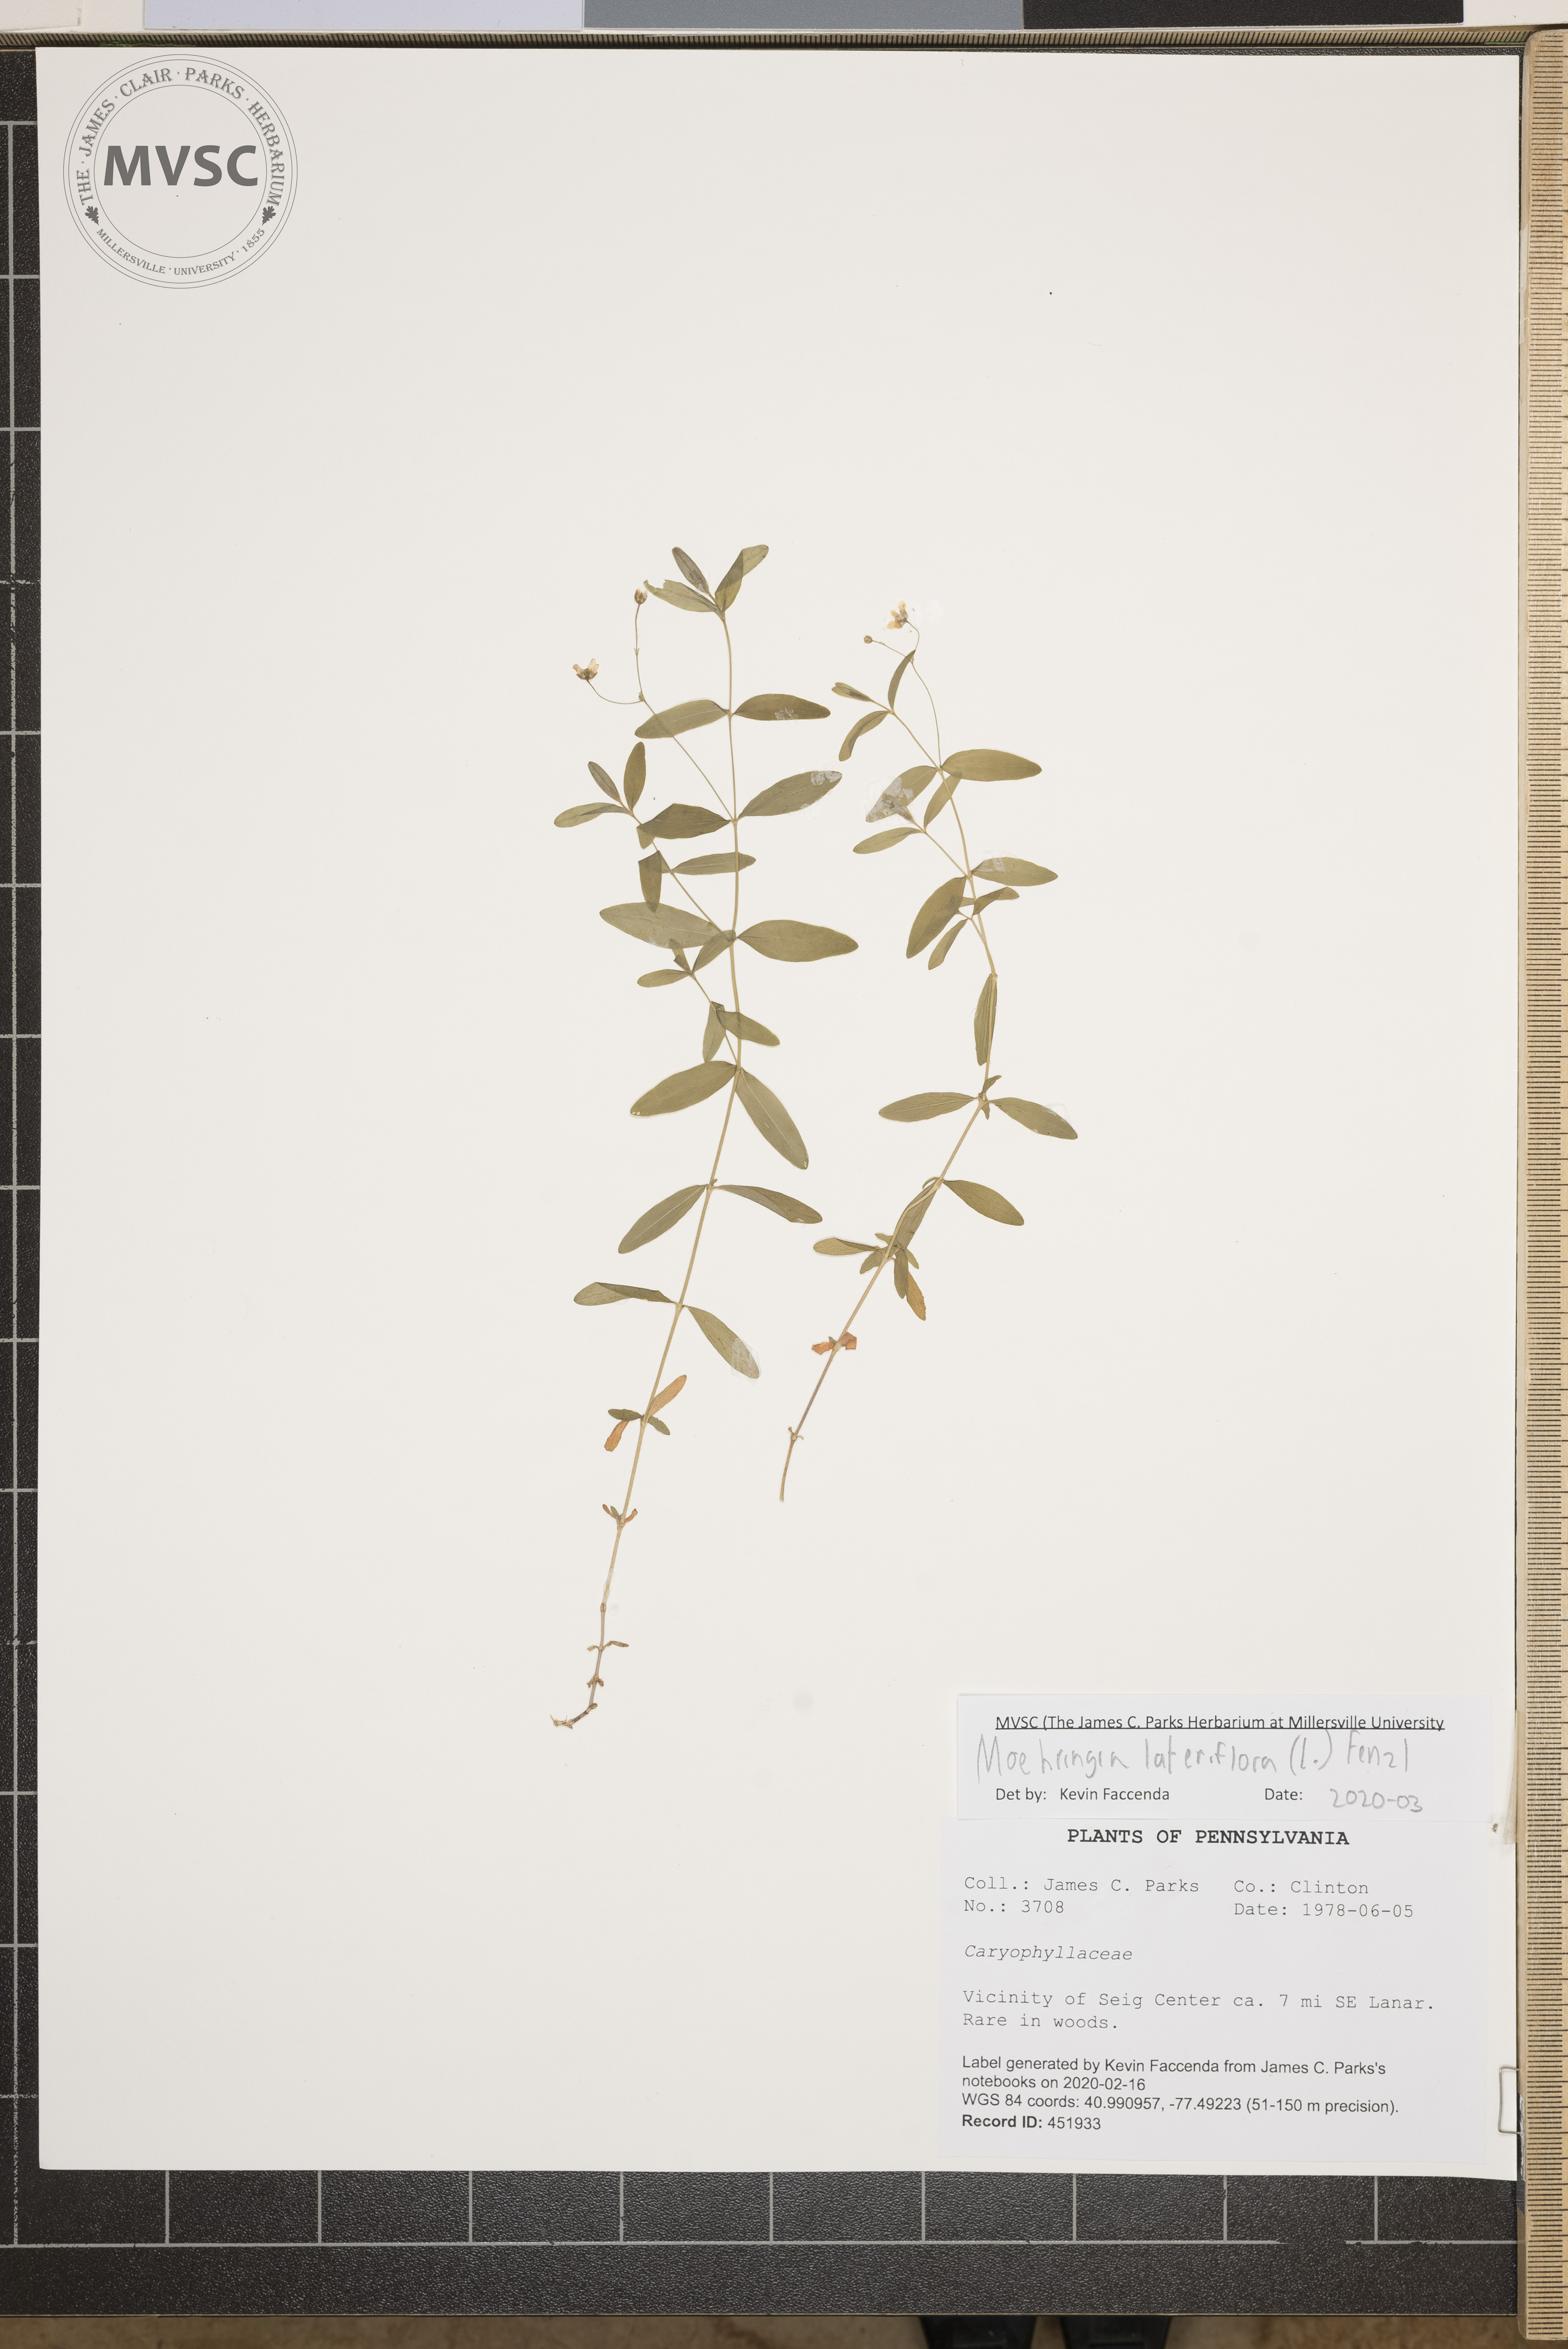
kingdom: Plantae
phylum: Tracheophyta
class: Magnoliopsida
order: Caryophyllales
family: Caryophyllaceae
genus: Moehringia
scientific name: Moehringia lateriflora
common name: Blunt-leaved sandwort
